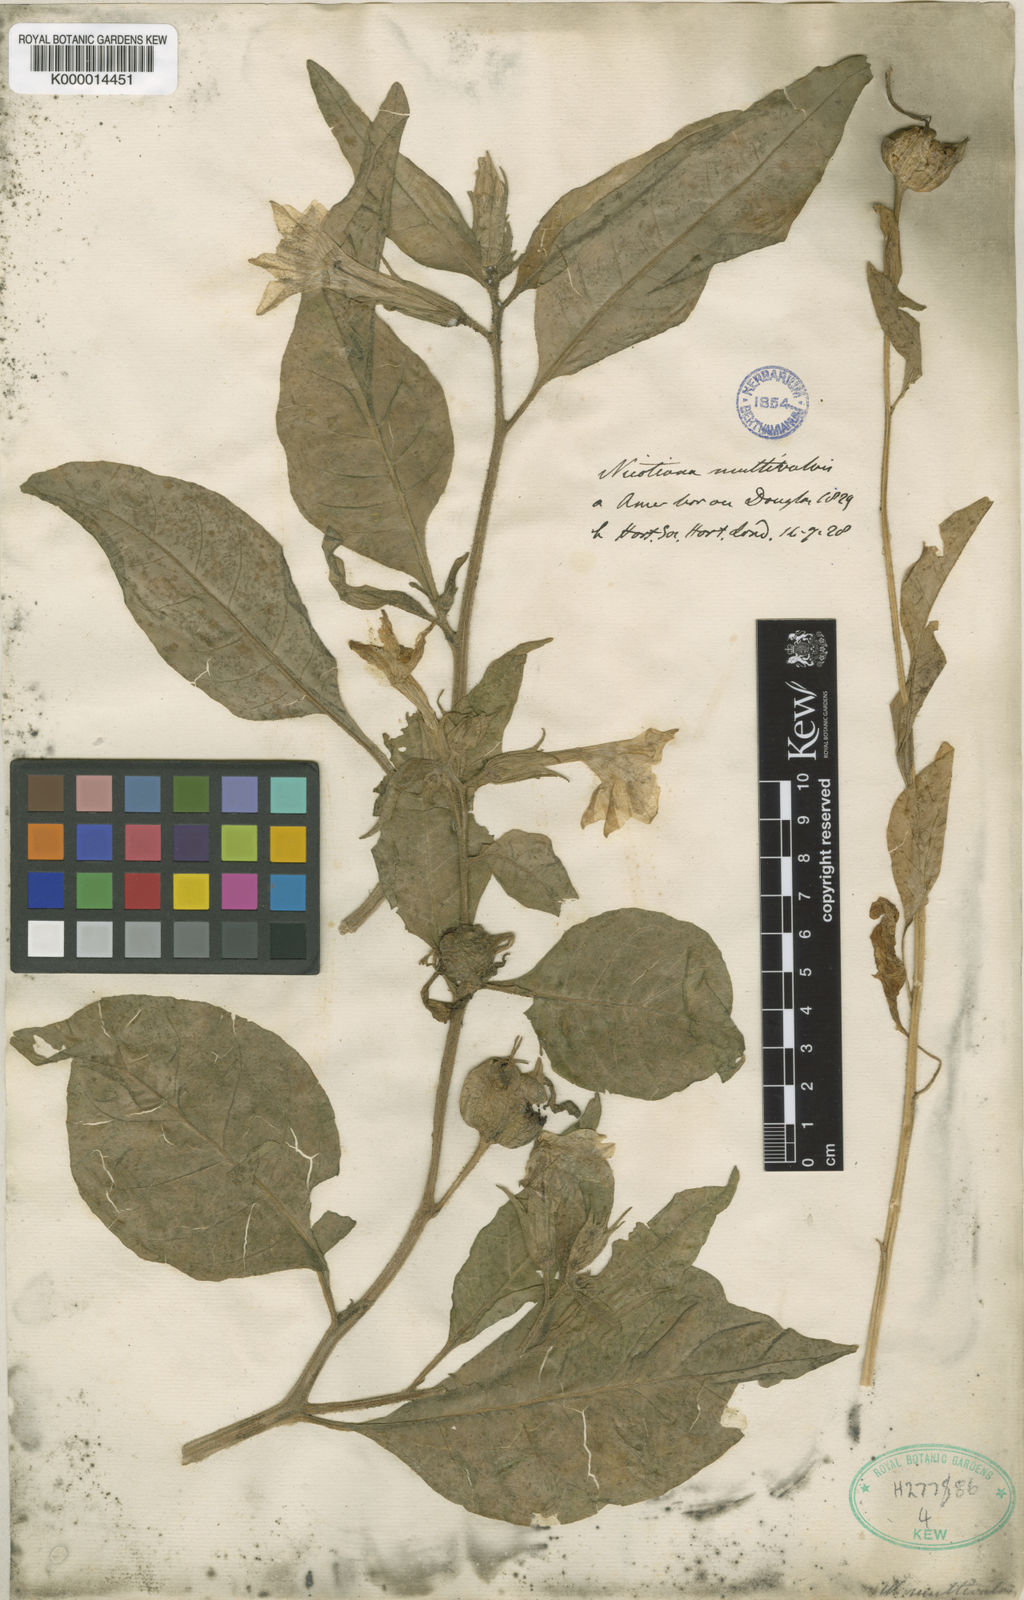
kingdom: Plantae
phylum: Tracheophyta
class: Magnoliopsida
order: Solanales
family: Solanaceae
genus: Nicotiana
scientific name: Nicotiana quadrivalvis
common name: Indian tobacco
